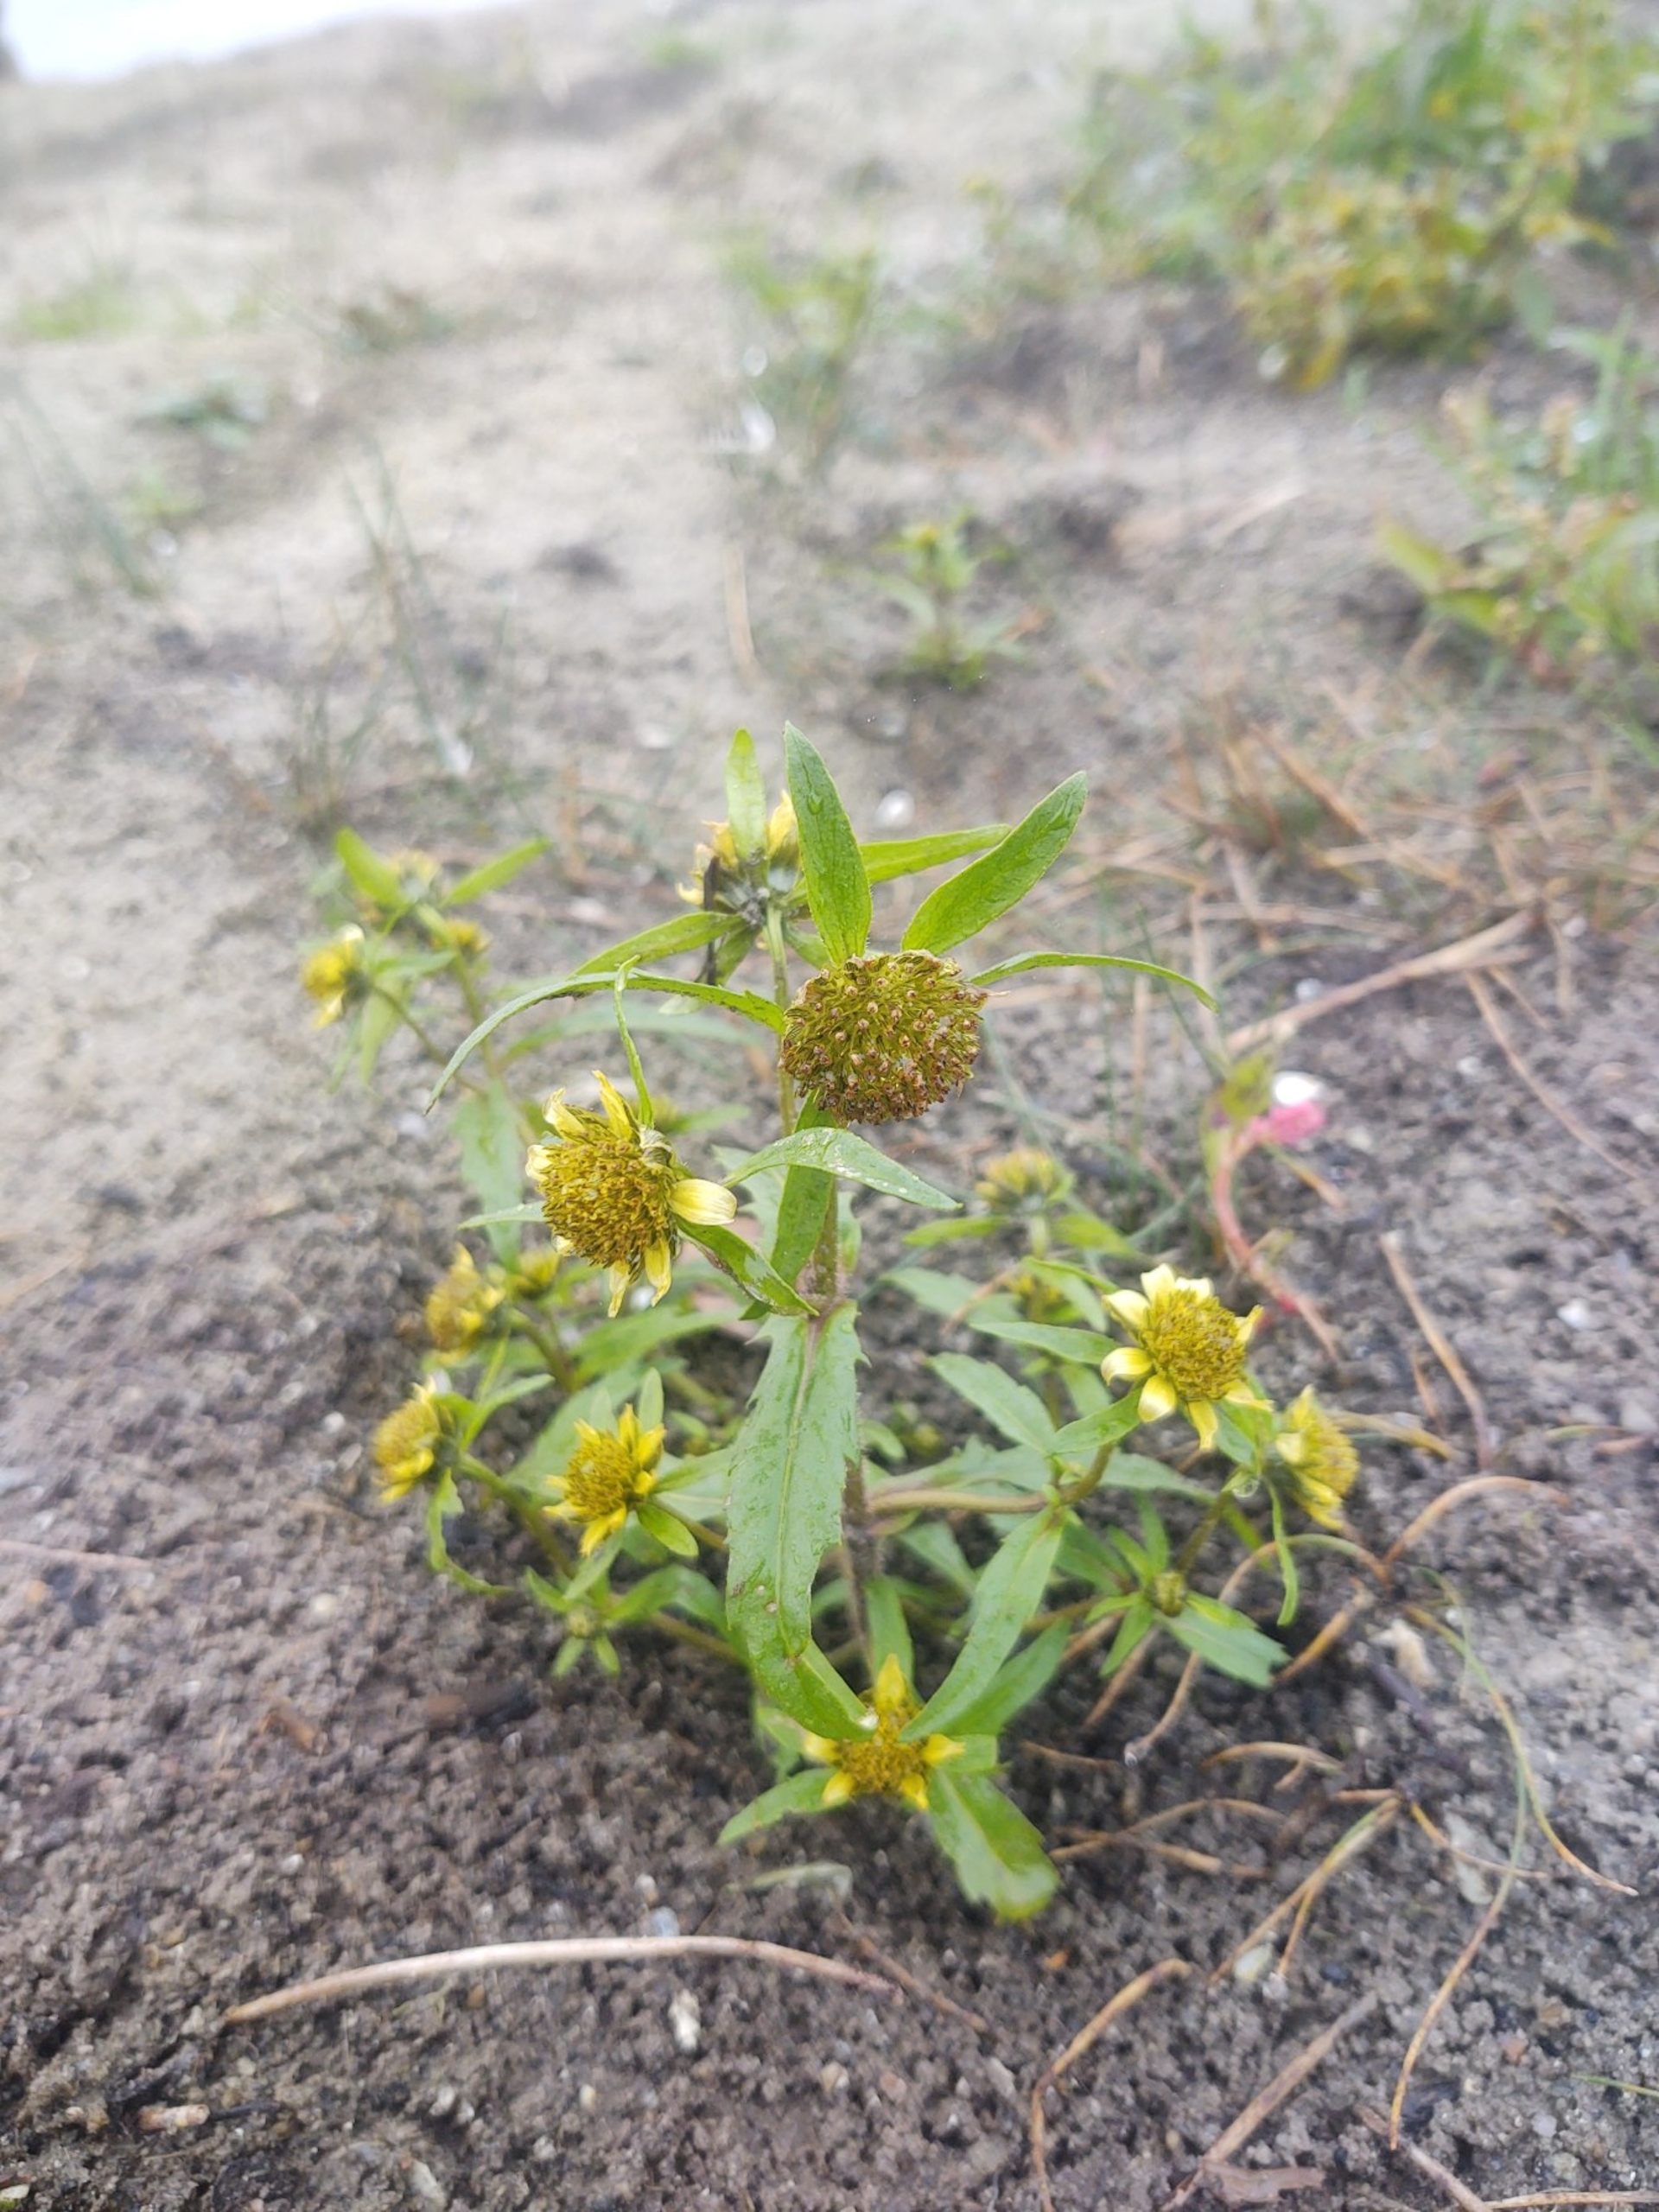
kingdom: Plantae
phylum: Tracheophyta
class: Magnoliopsida
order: Asterales
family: Asteraceae
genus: Bidens
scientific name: Bidens cernua
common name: Nikkende brøndsel
